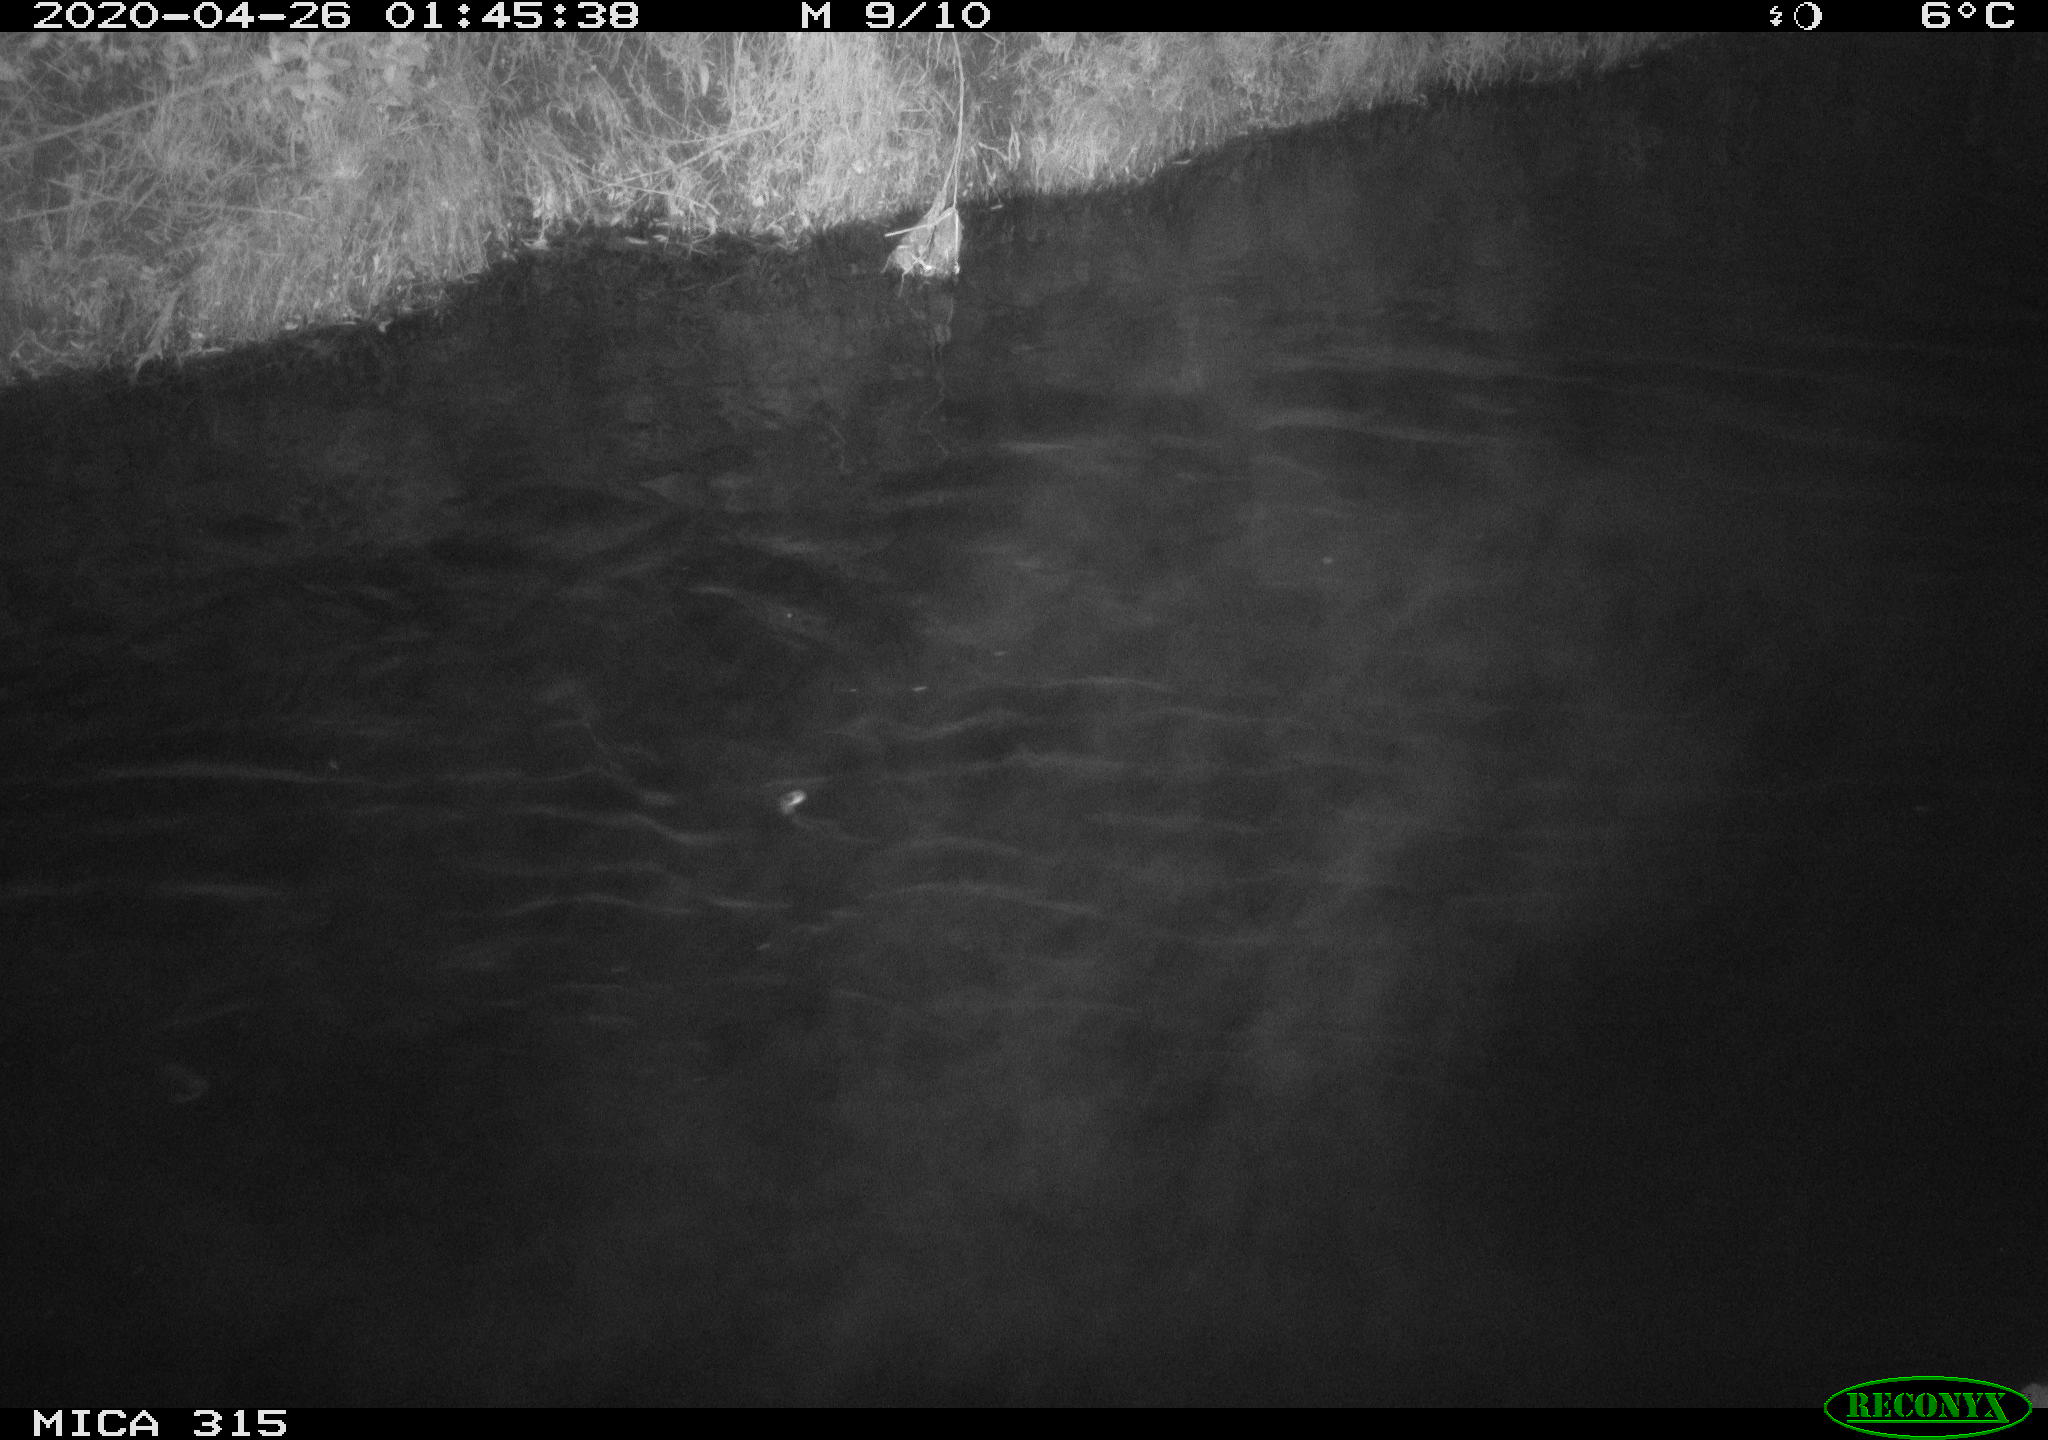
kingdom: Animalia
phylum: Chordata
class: Aves
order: Anseriformes
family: Anatidae
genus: Anas
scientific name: Anas platyrhynchos
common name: Mallard
